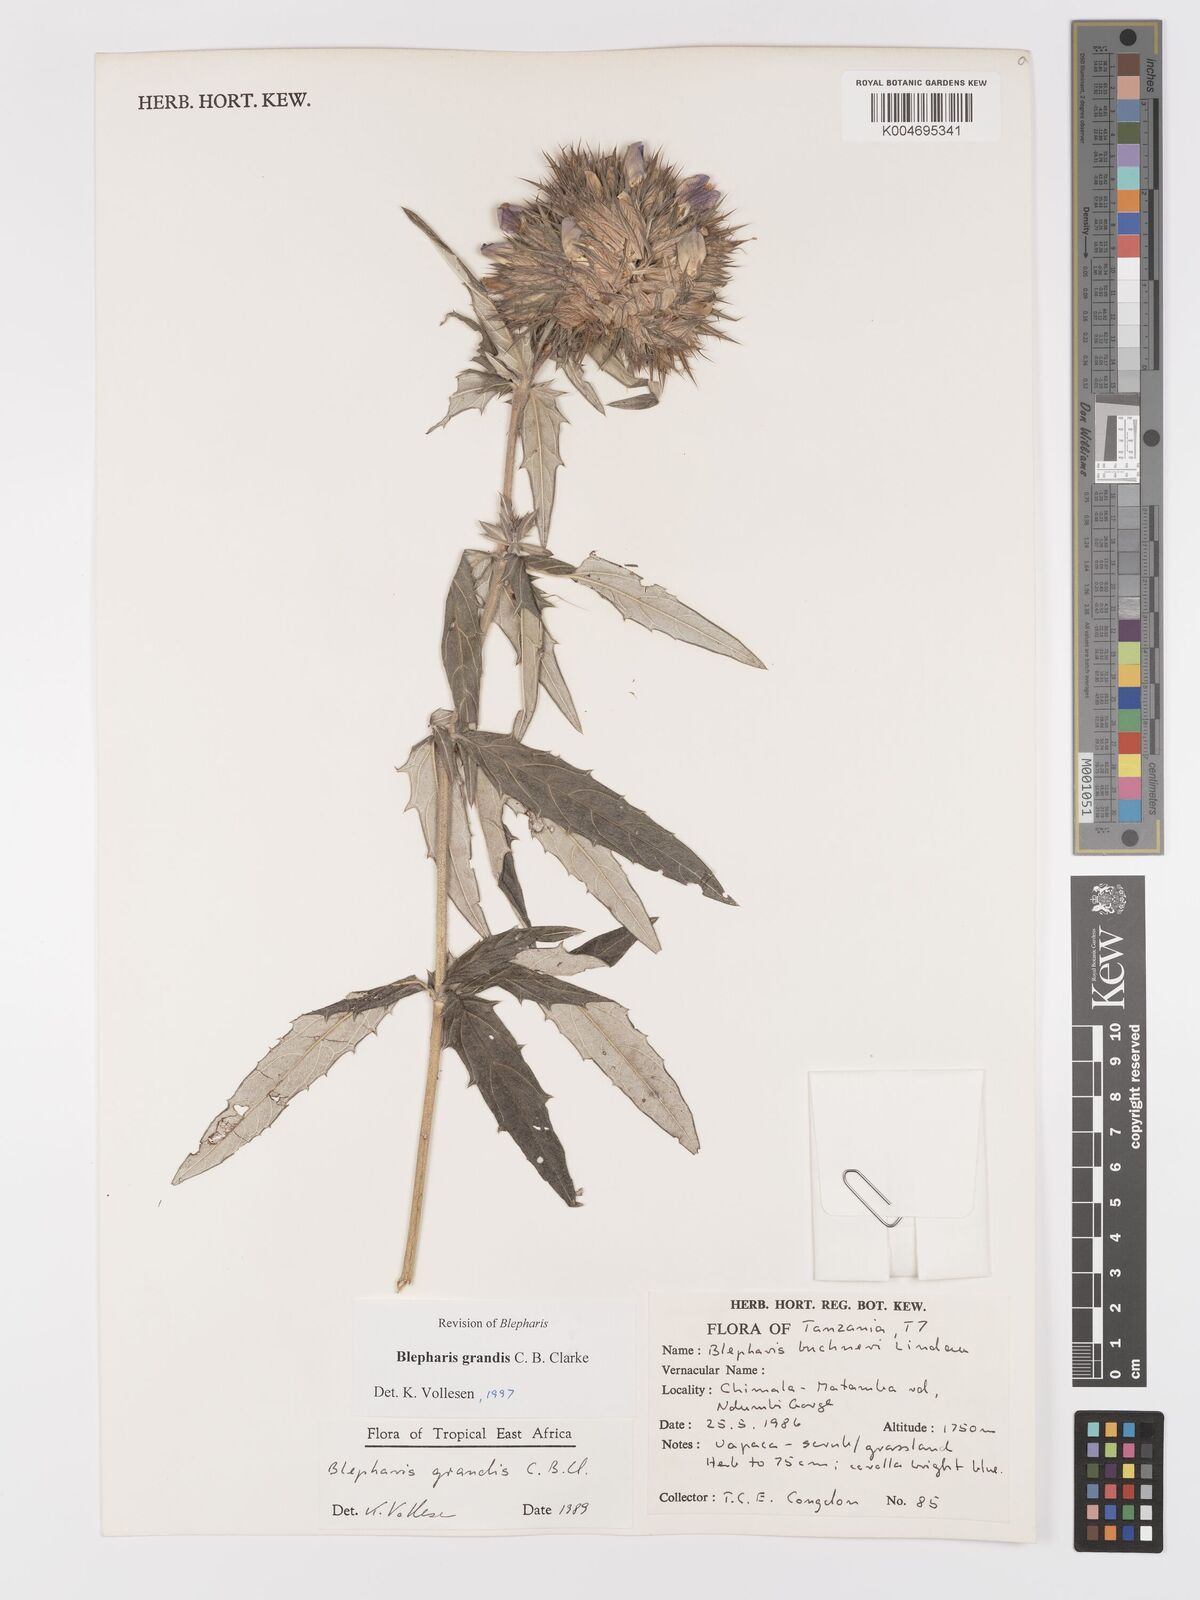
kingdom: Plantae
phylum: Tracheophyta
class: Magnoliopsida
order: Lamiales
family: Acanthaceae
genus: Blepharis
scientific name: Blepharis grandis
